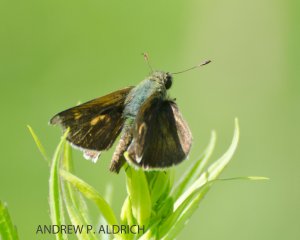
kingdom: Animalia
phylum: Arthropoda
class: Insecta
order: Lepidoptera
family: Hesperiidae
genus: Polites
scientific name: Polites egeremet
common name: Northern Broken-Dash
